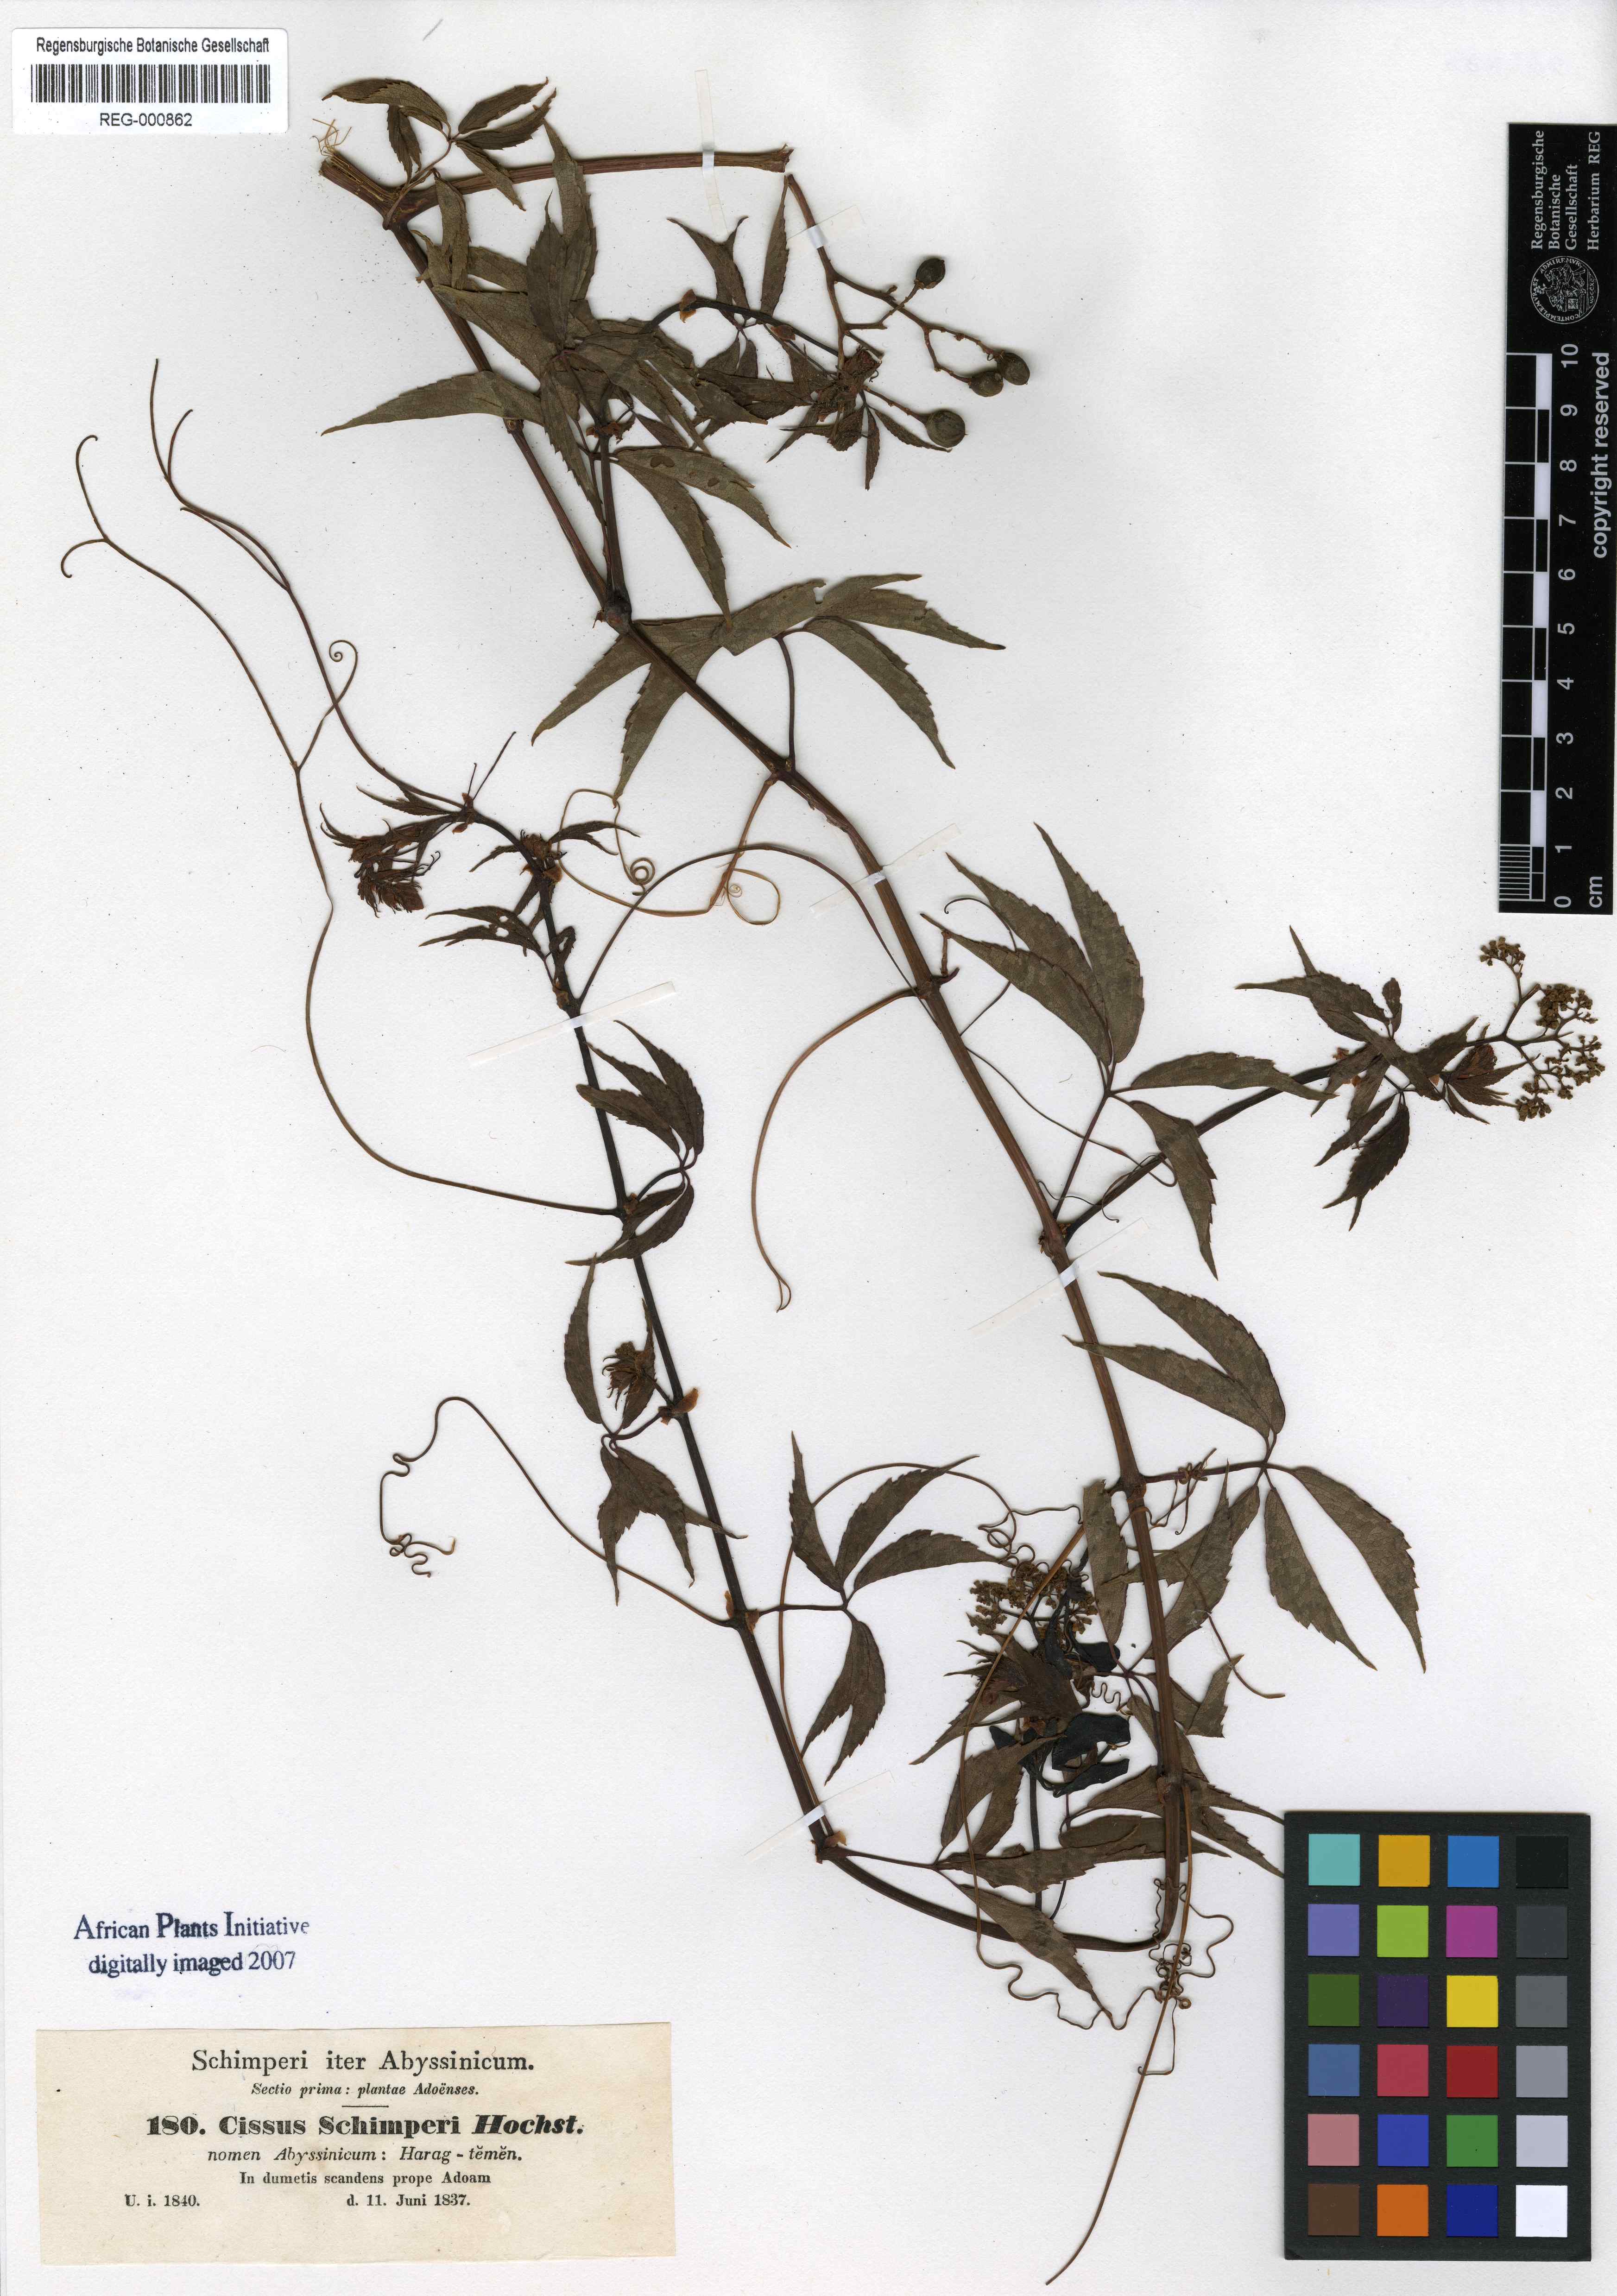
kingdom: Plantae
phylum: Tracheophyta
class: Magnoliopsida
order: Vitales
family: Vitaceae
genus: Cyphostemma
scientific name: Cyphostemma oxyphyllum
